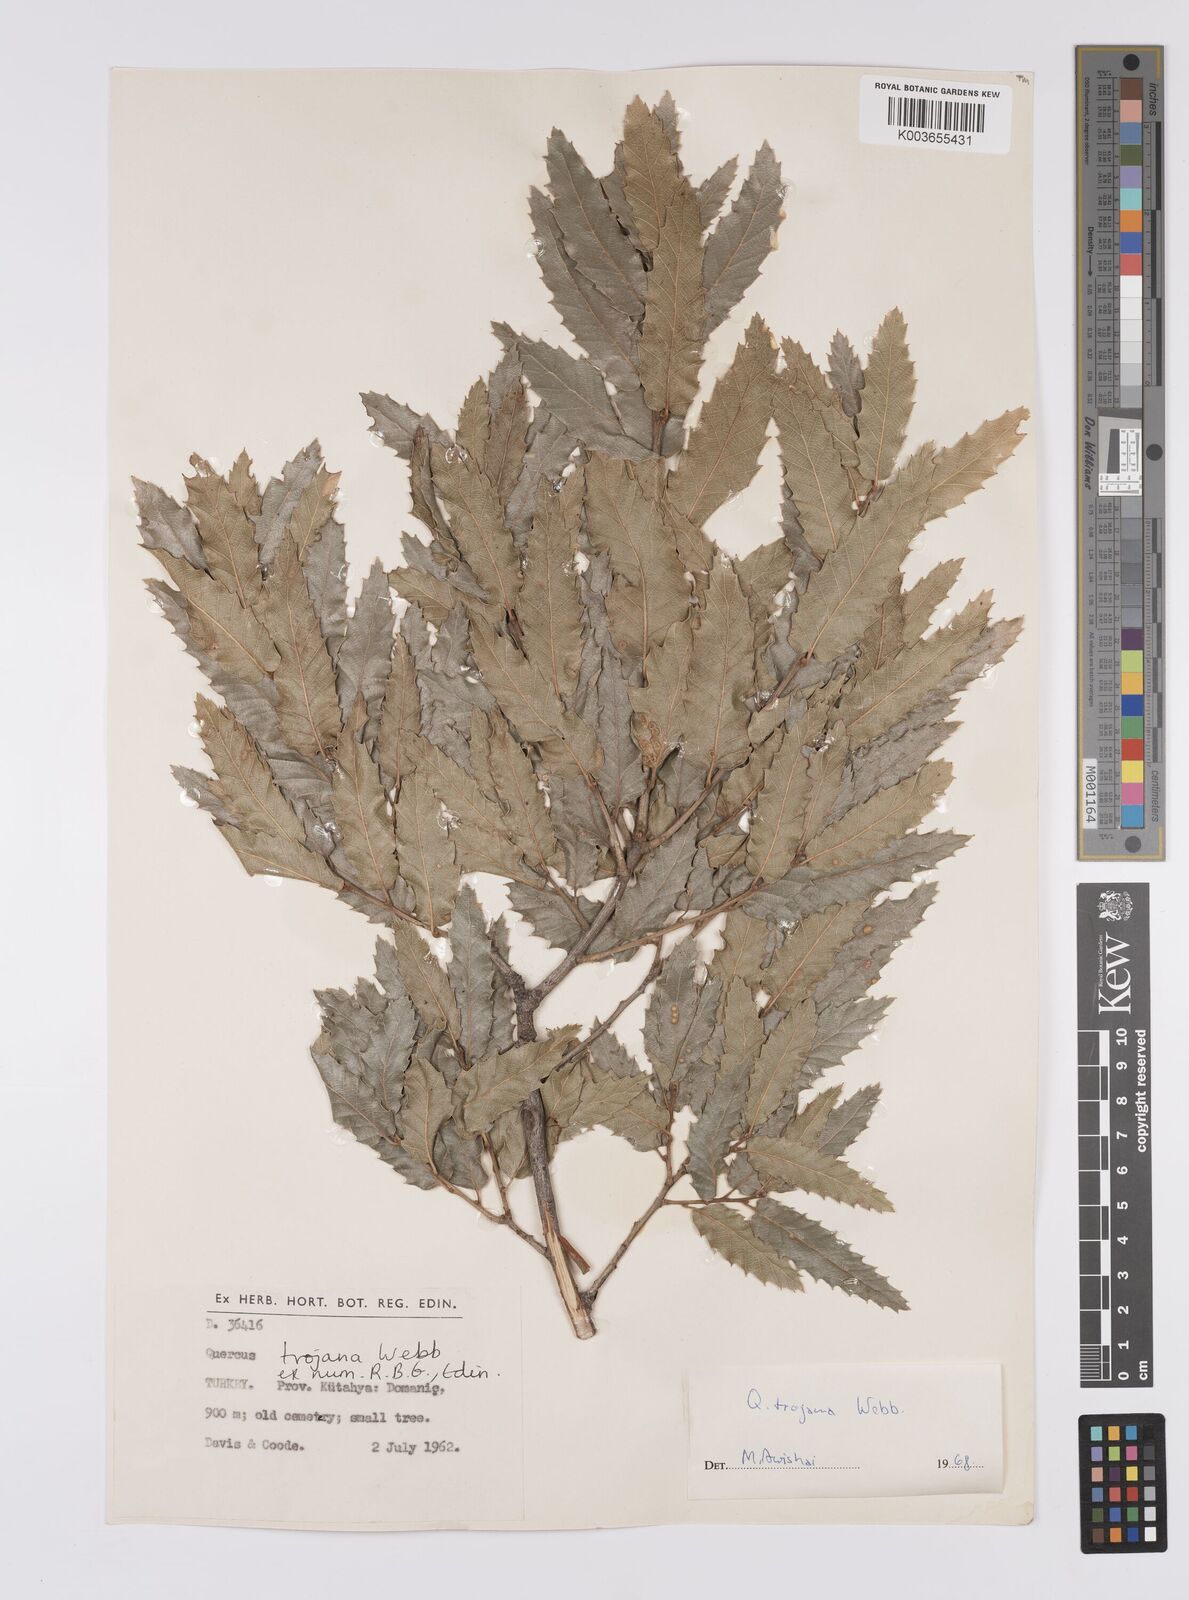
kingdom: Plantae
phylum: Tracheophyta
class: Magnoliopsida
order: Fagales
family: Fagaceae
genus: Quercus
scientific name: Quercus trojana
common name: Macedonian oak
